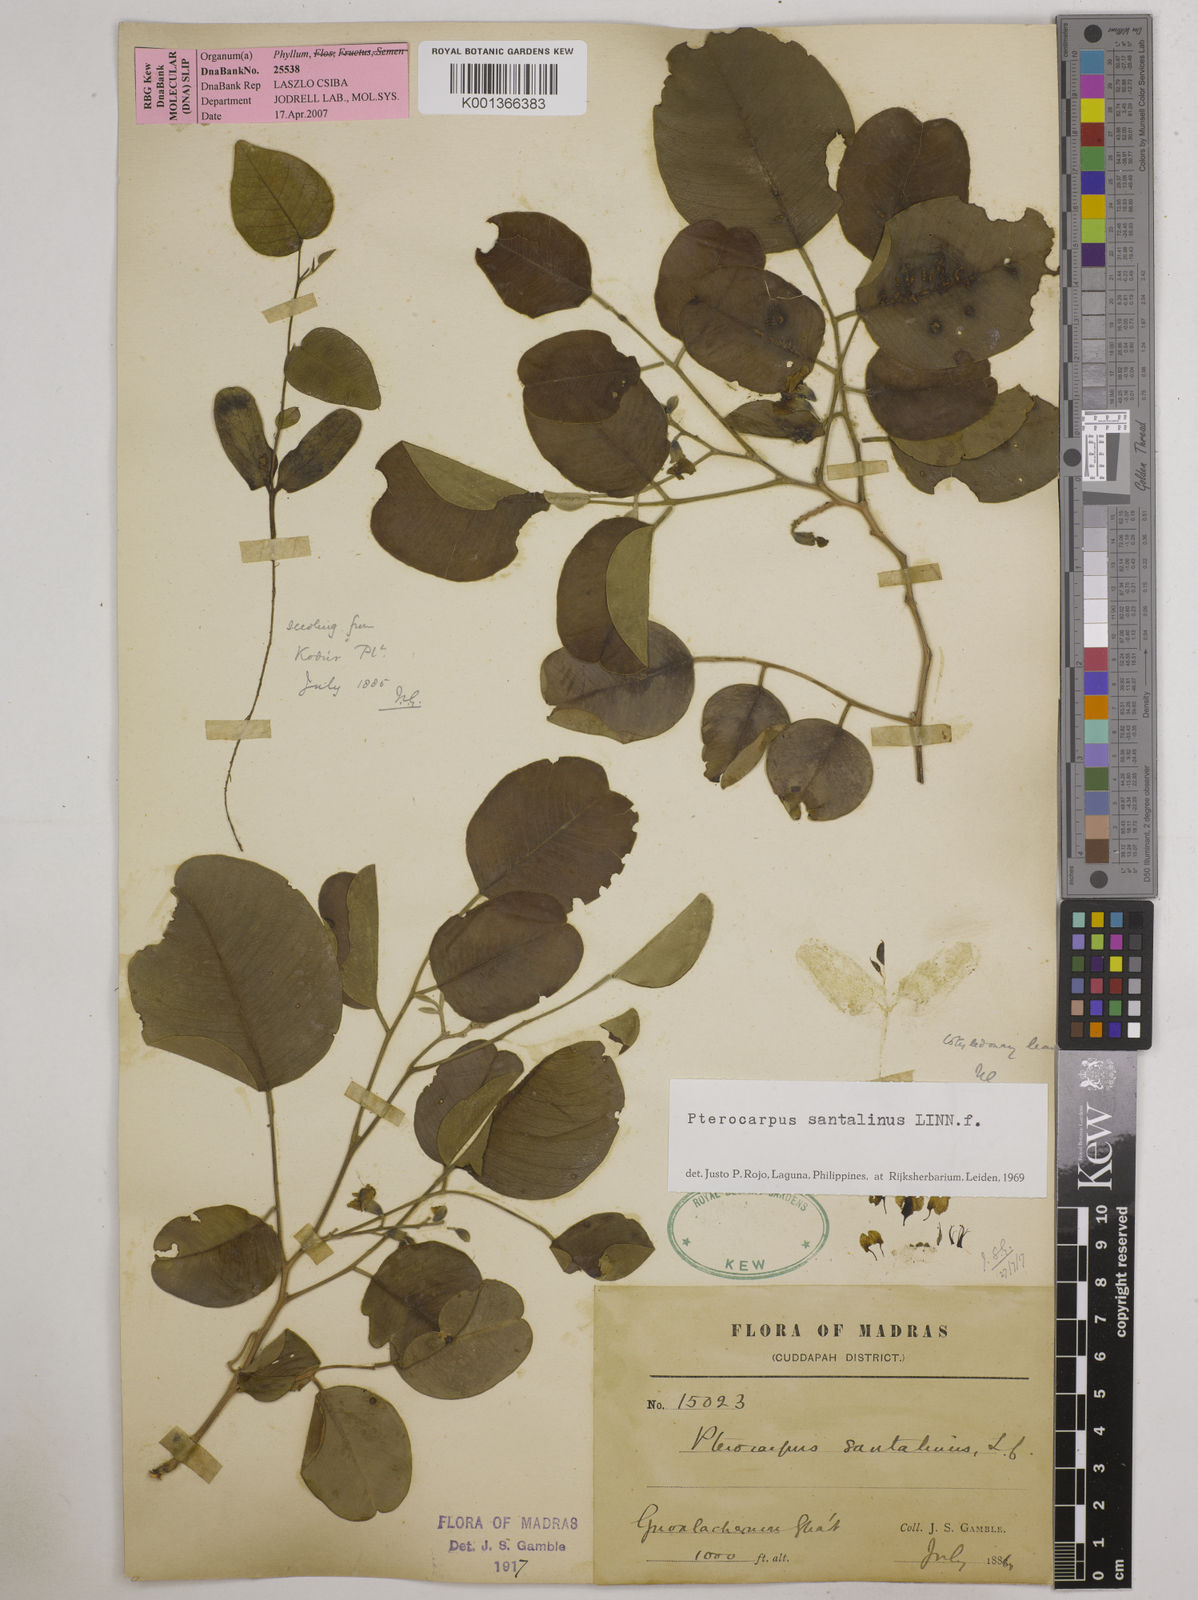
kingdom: Plantae
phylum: Tracheophyta
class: Magnoliopsida
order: Fabales
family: Fabaceae
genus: Pterocarpus
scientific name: Pterocarpus marsupium
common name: East indian/malabar kino
